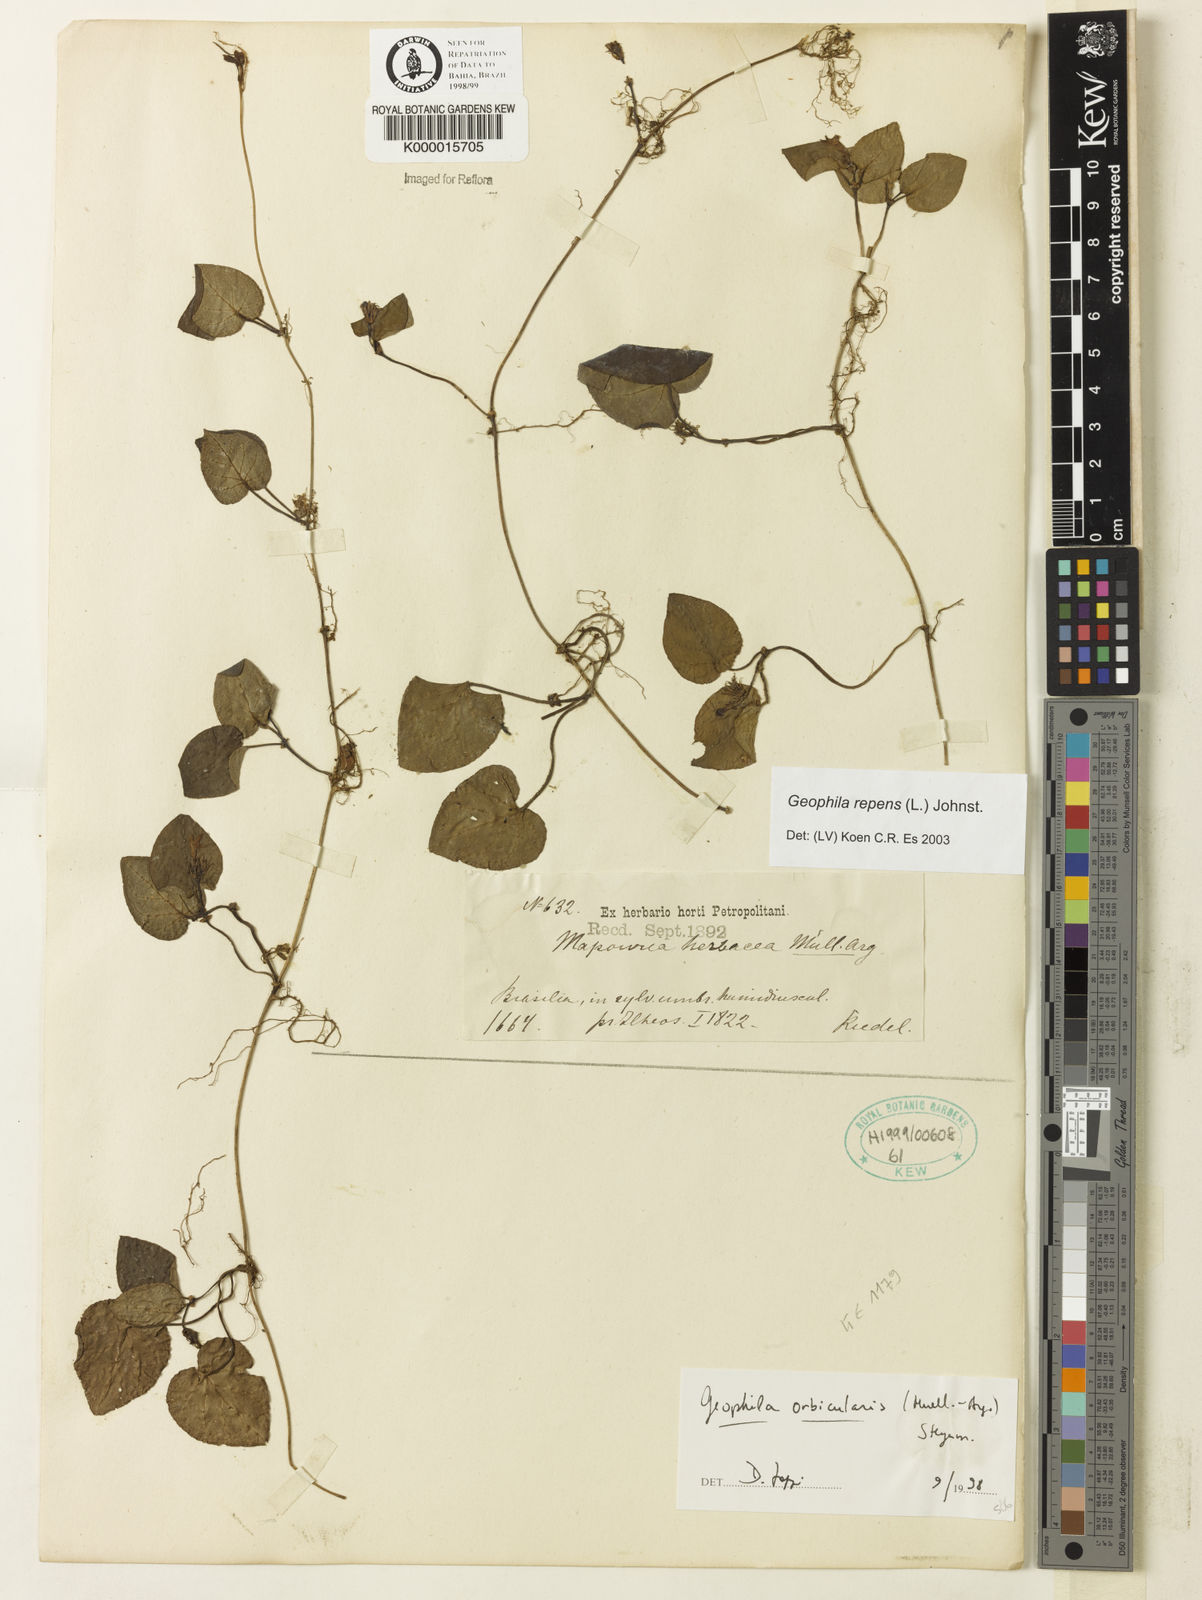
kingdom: Plantae
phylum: Tracheophyta
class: Magnoliopsida
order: Gentianales
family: Rubiaceae
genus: Geophila
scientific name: Geophila repens
